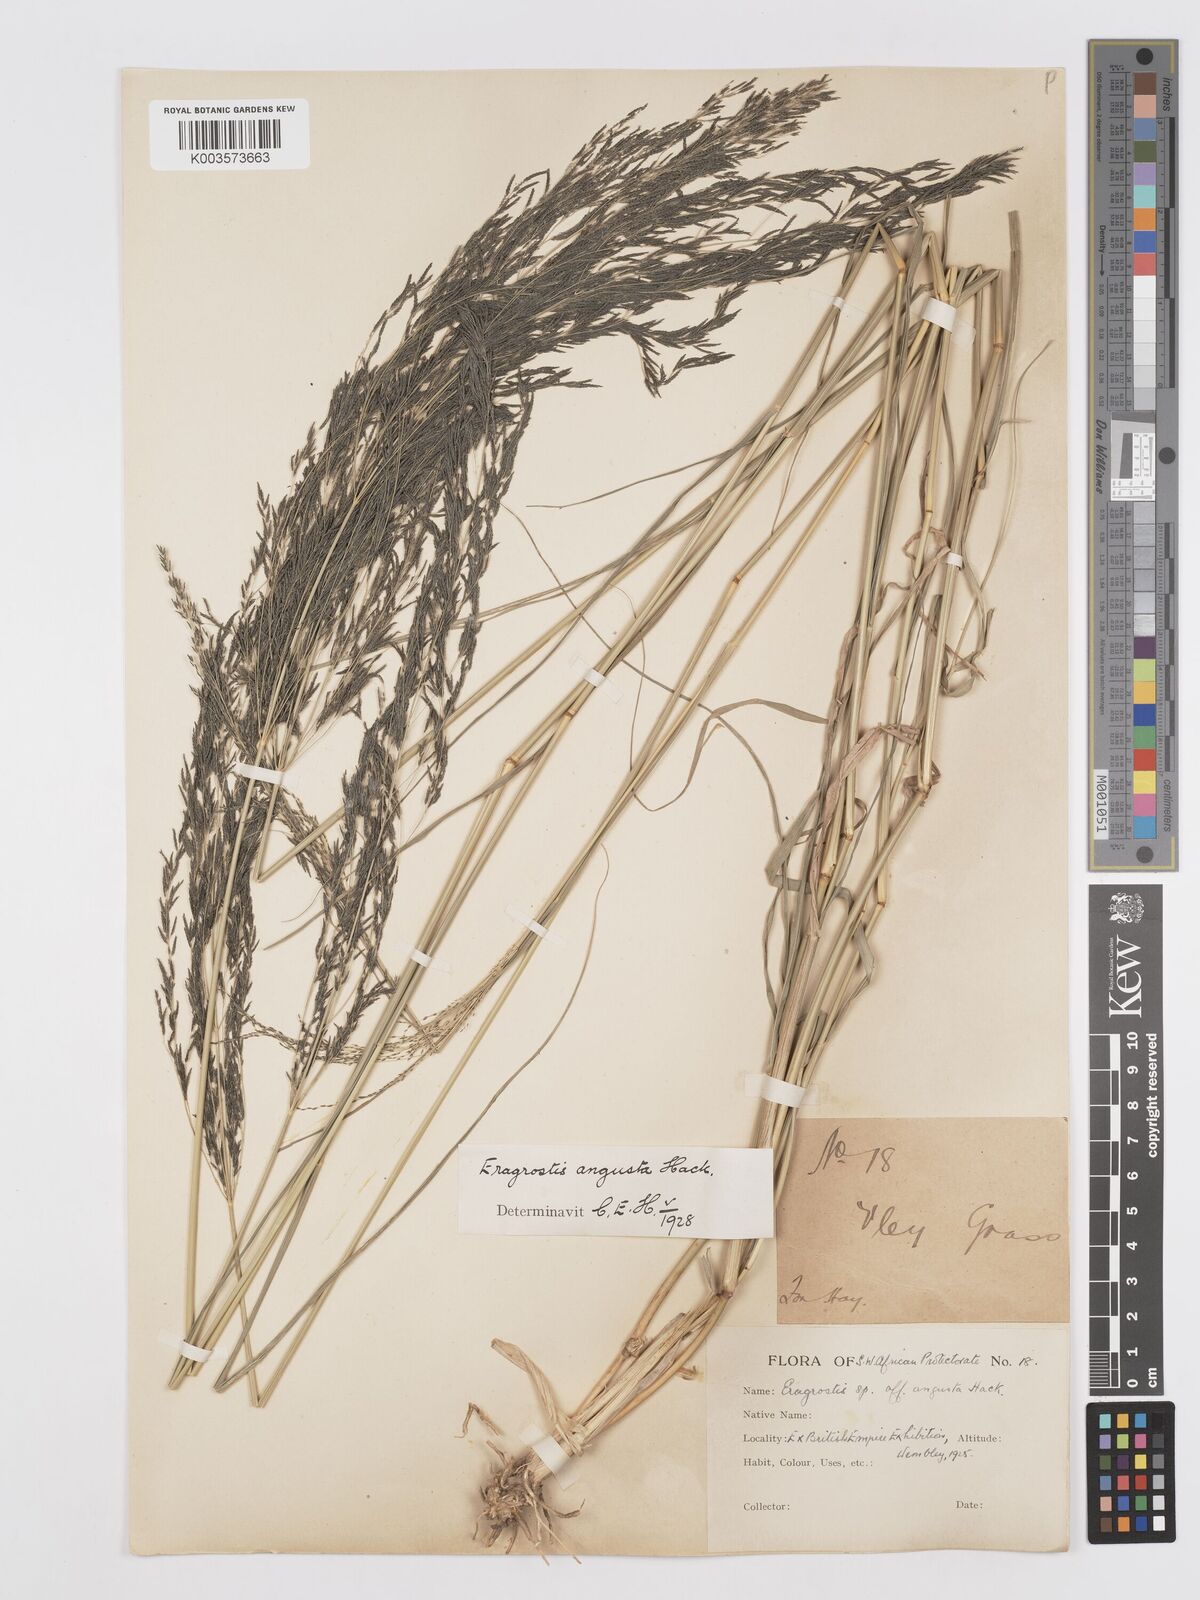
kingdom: Plantae
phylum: Tracheophyta
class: Liliopsida
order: Poales
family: Poaceae
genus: Eragrostis
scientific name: Eragrostis rotifer
